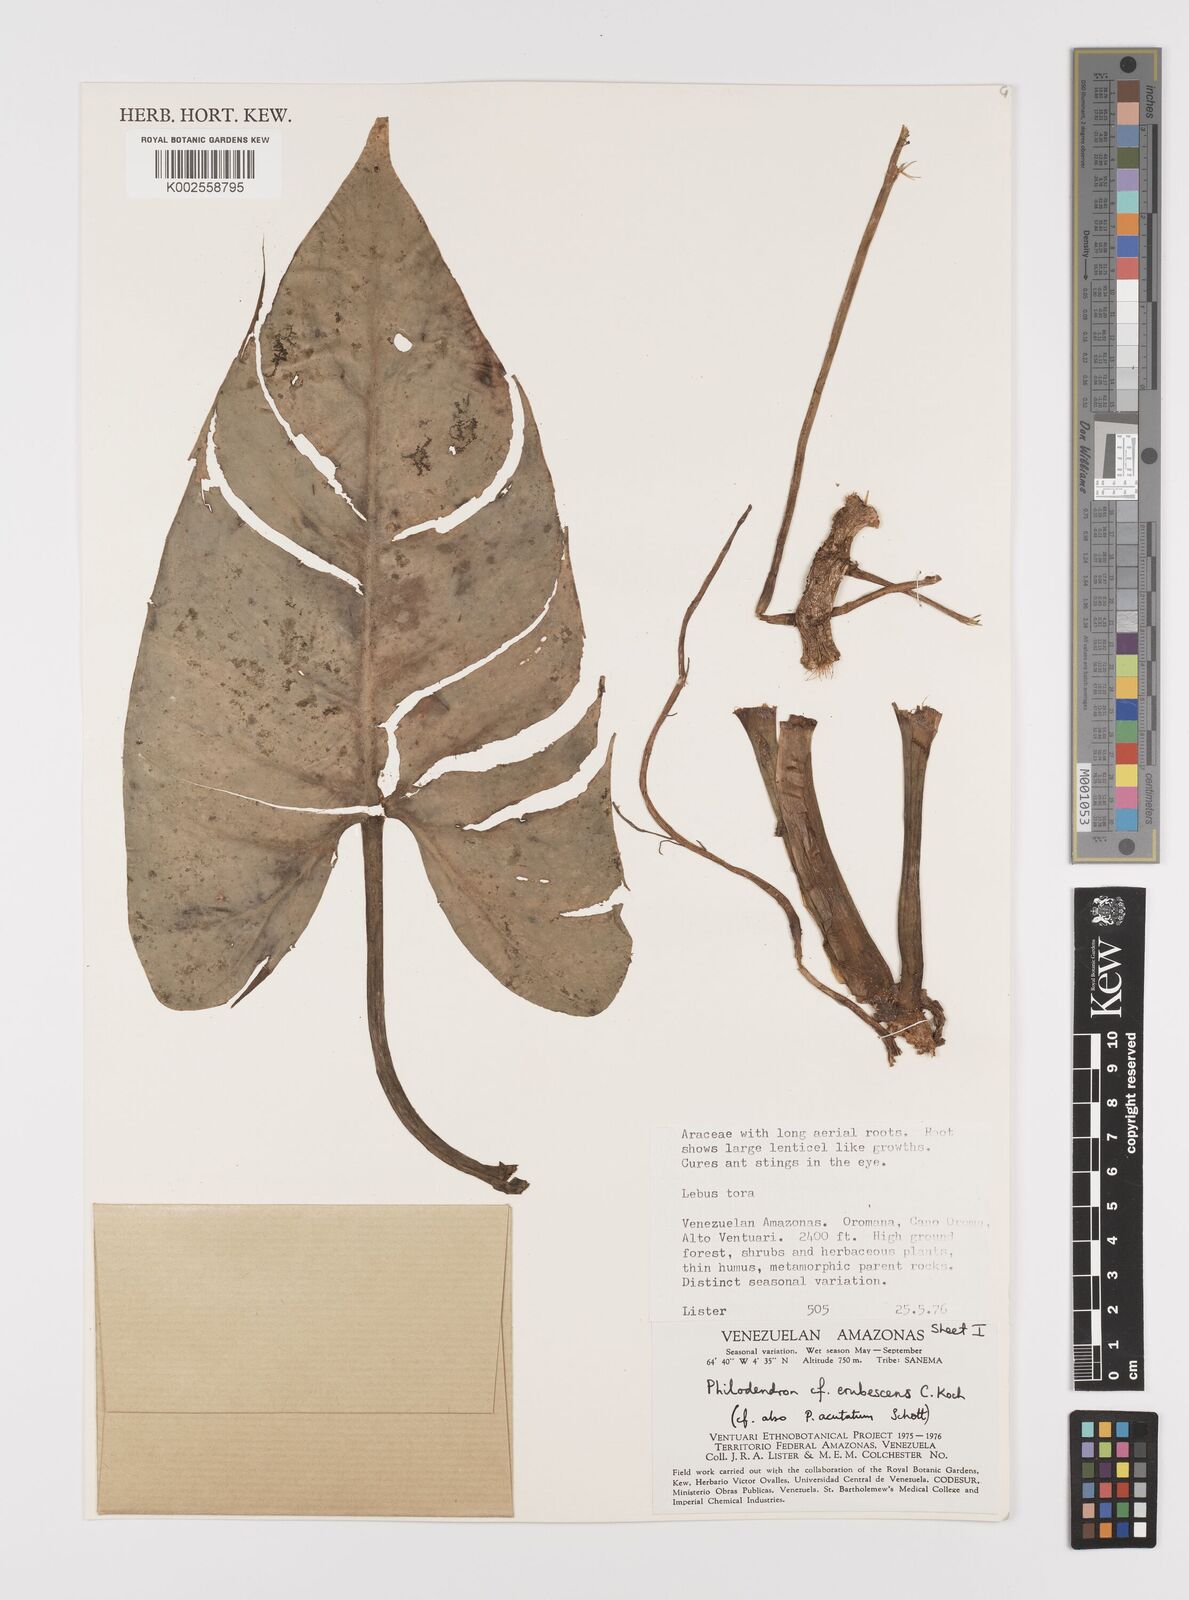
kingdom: Plantae
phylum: Tracheophyta
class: Liliopsida
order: Alismatales
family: Araceae
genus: Philodendron
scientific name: Philodendron erubescens
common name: Philodendron
